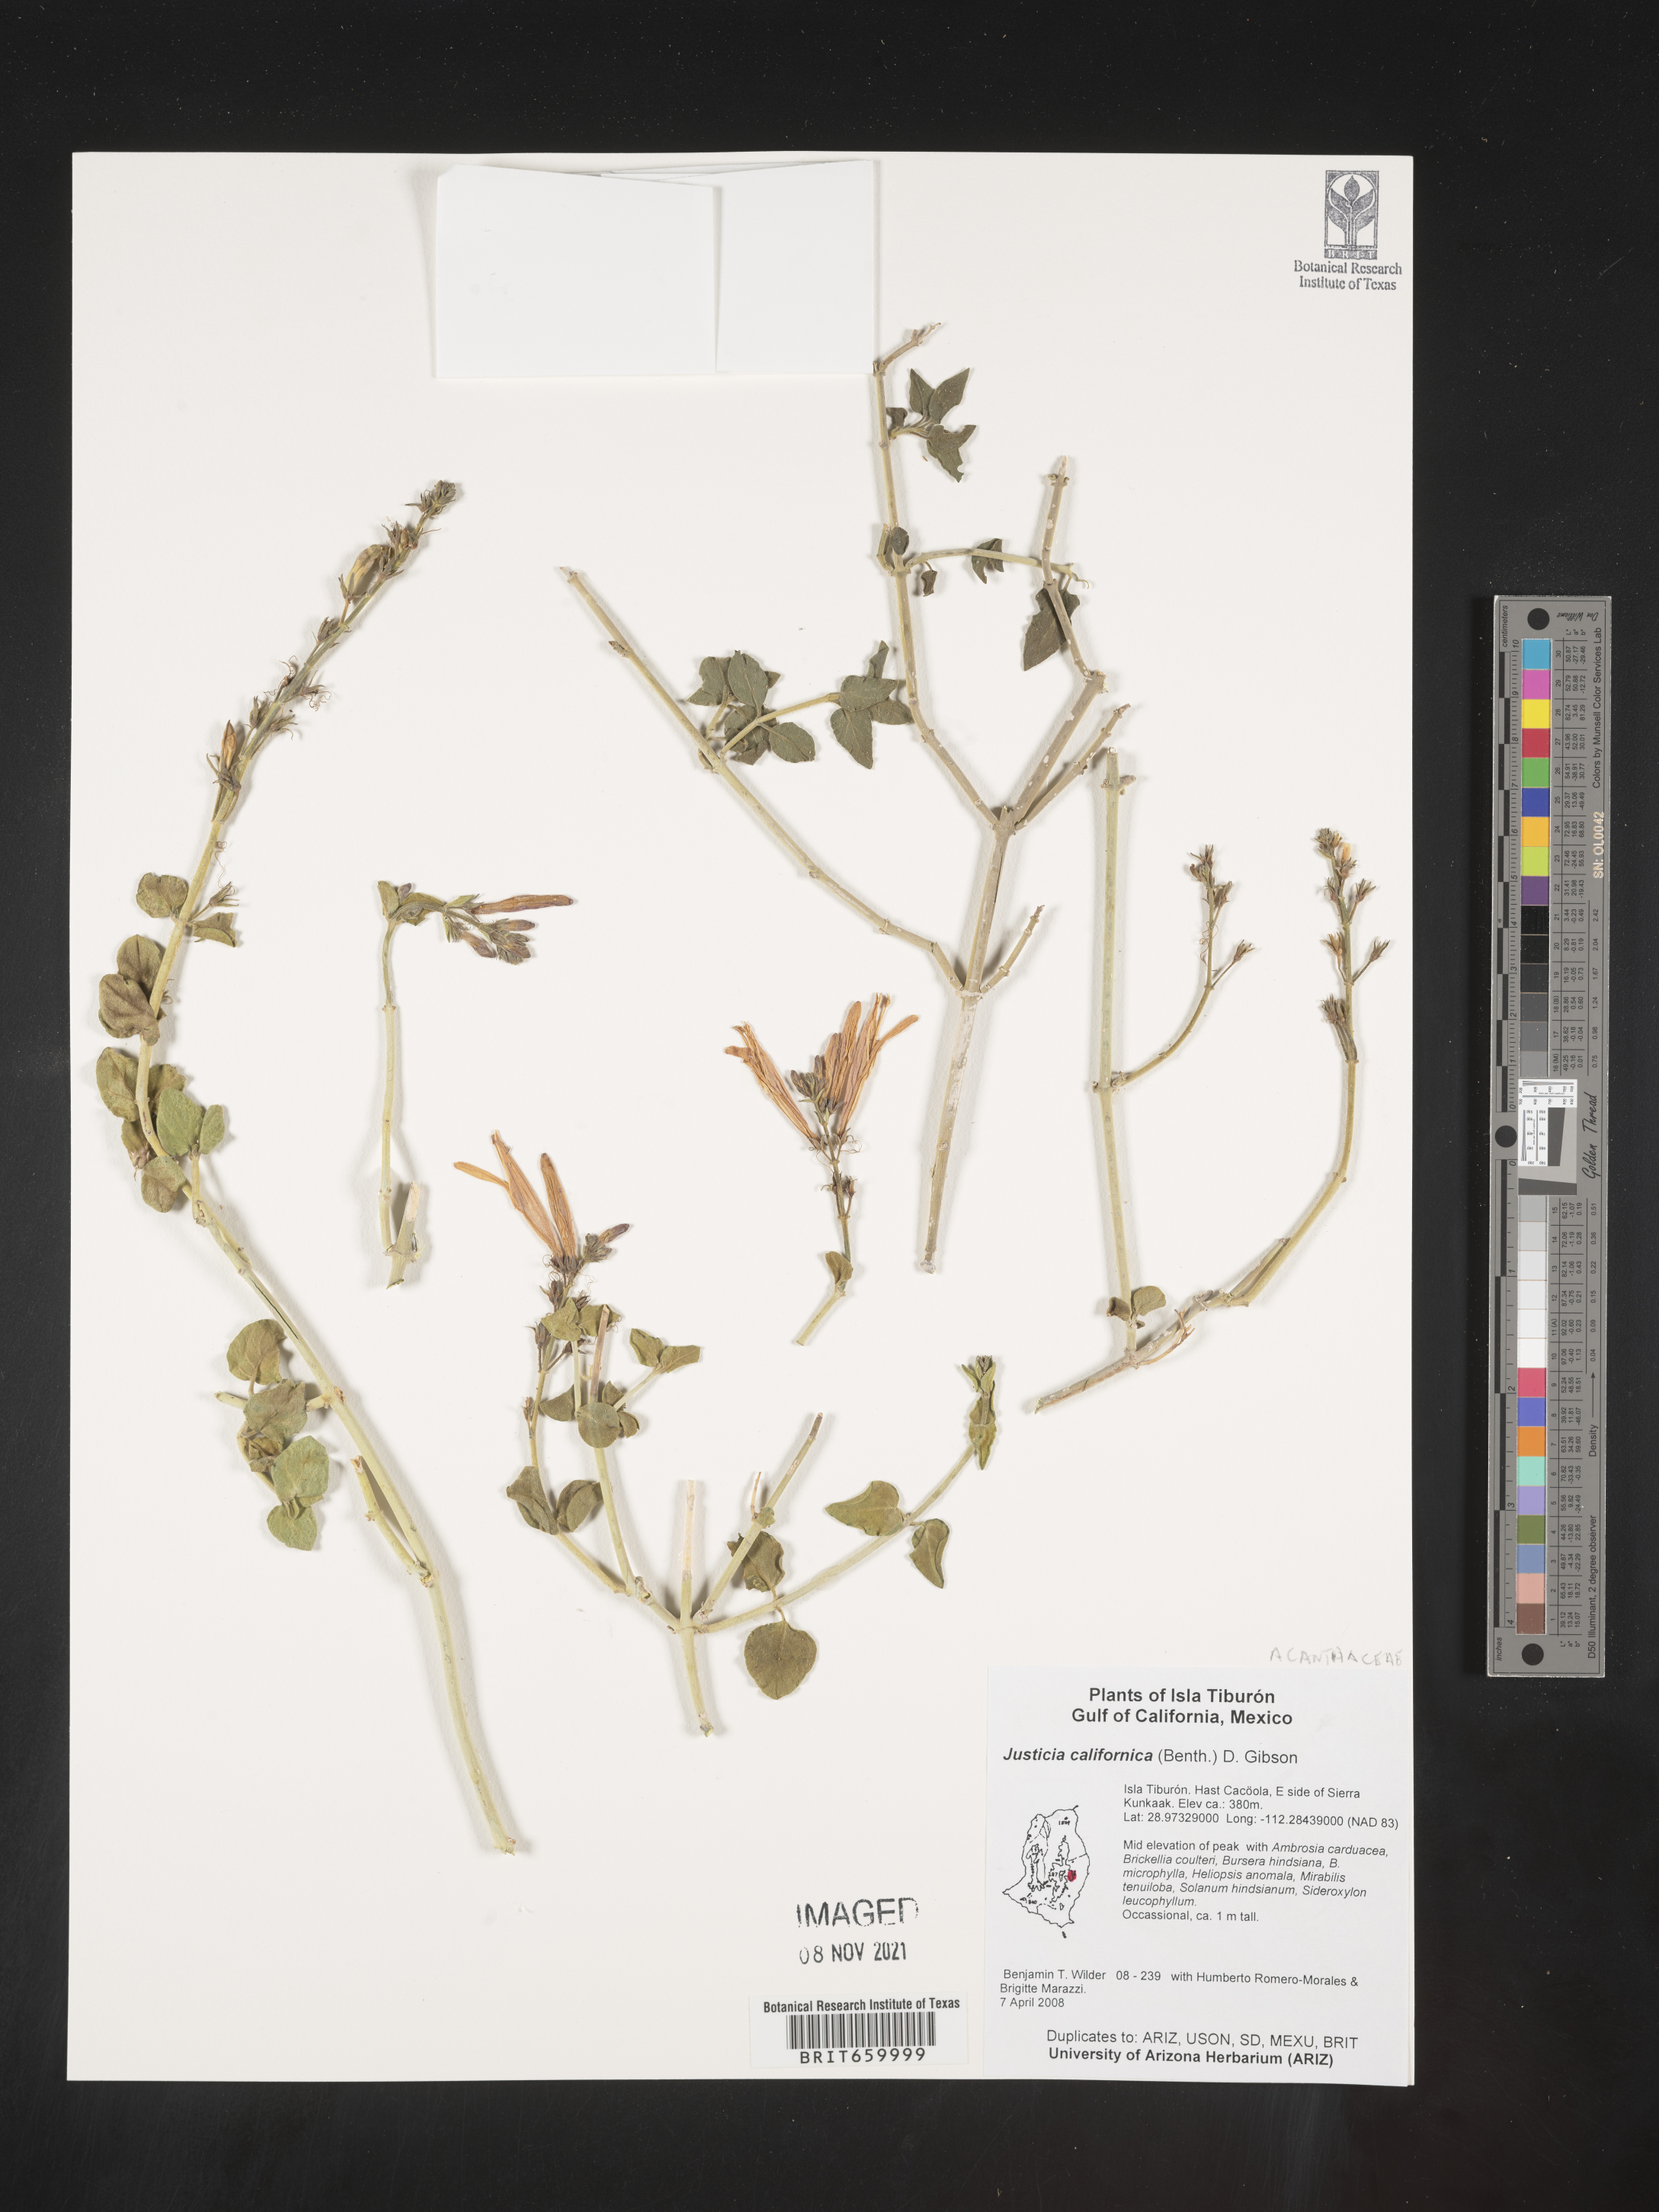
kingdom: Plantae
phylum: Tracheophyta
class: Magnoliopsida
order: Lamiales
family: Acanthaceae
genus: Justicia
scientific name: Justicia californica
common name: Chuparosa-honeysuckle
